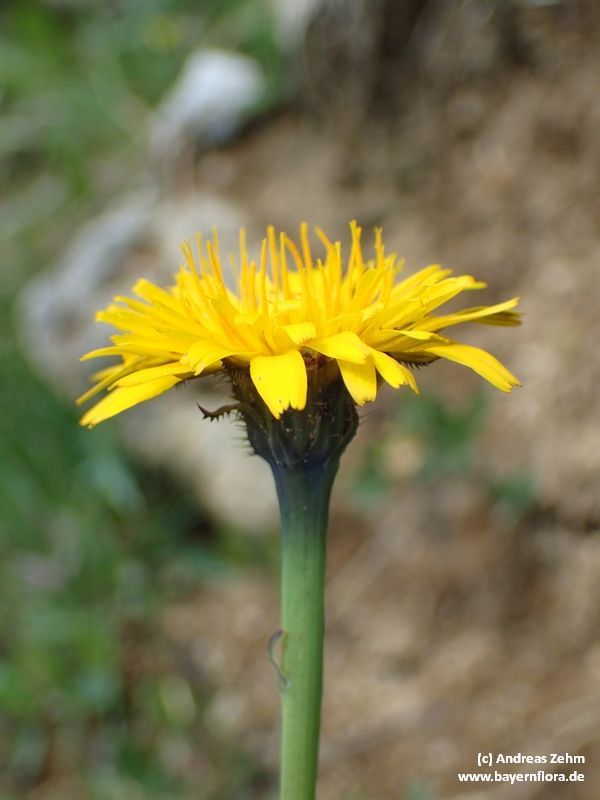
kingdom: Plantae
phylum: Tracheophyta
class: Magnoliopsida
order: Asterales
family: Asteraceae
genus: Hypochaeris
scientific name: Hypochaeris radicata
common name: Flatweed
